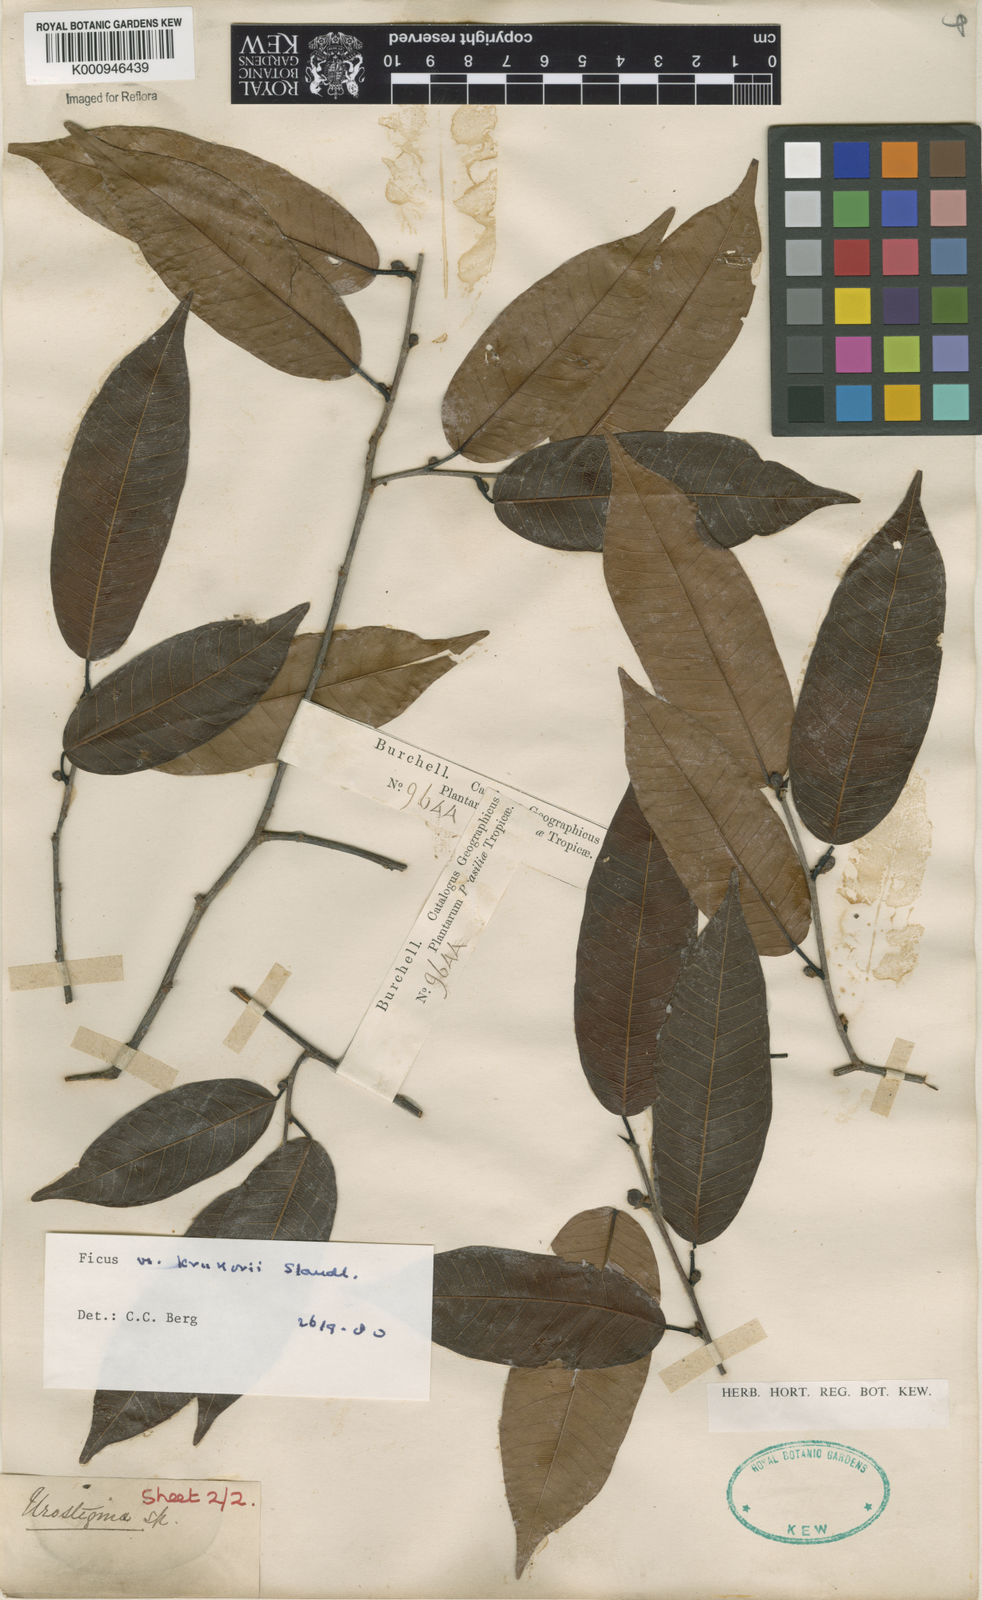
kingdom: Plantae
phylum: Tracheophyta
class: Magnoliopsida
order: Rosales
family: Moraceae
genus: Ficus
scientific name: Ficus krukovii
